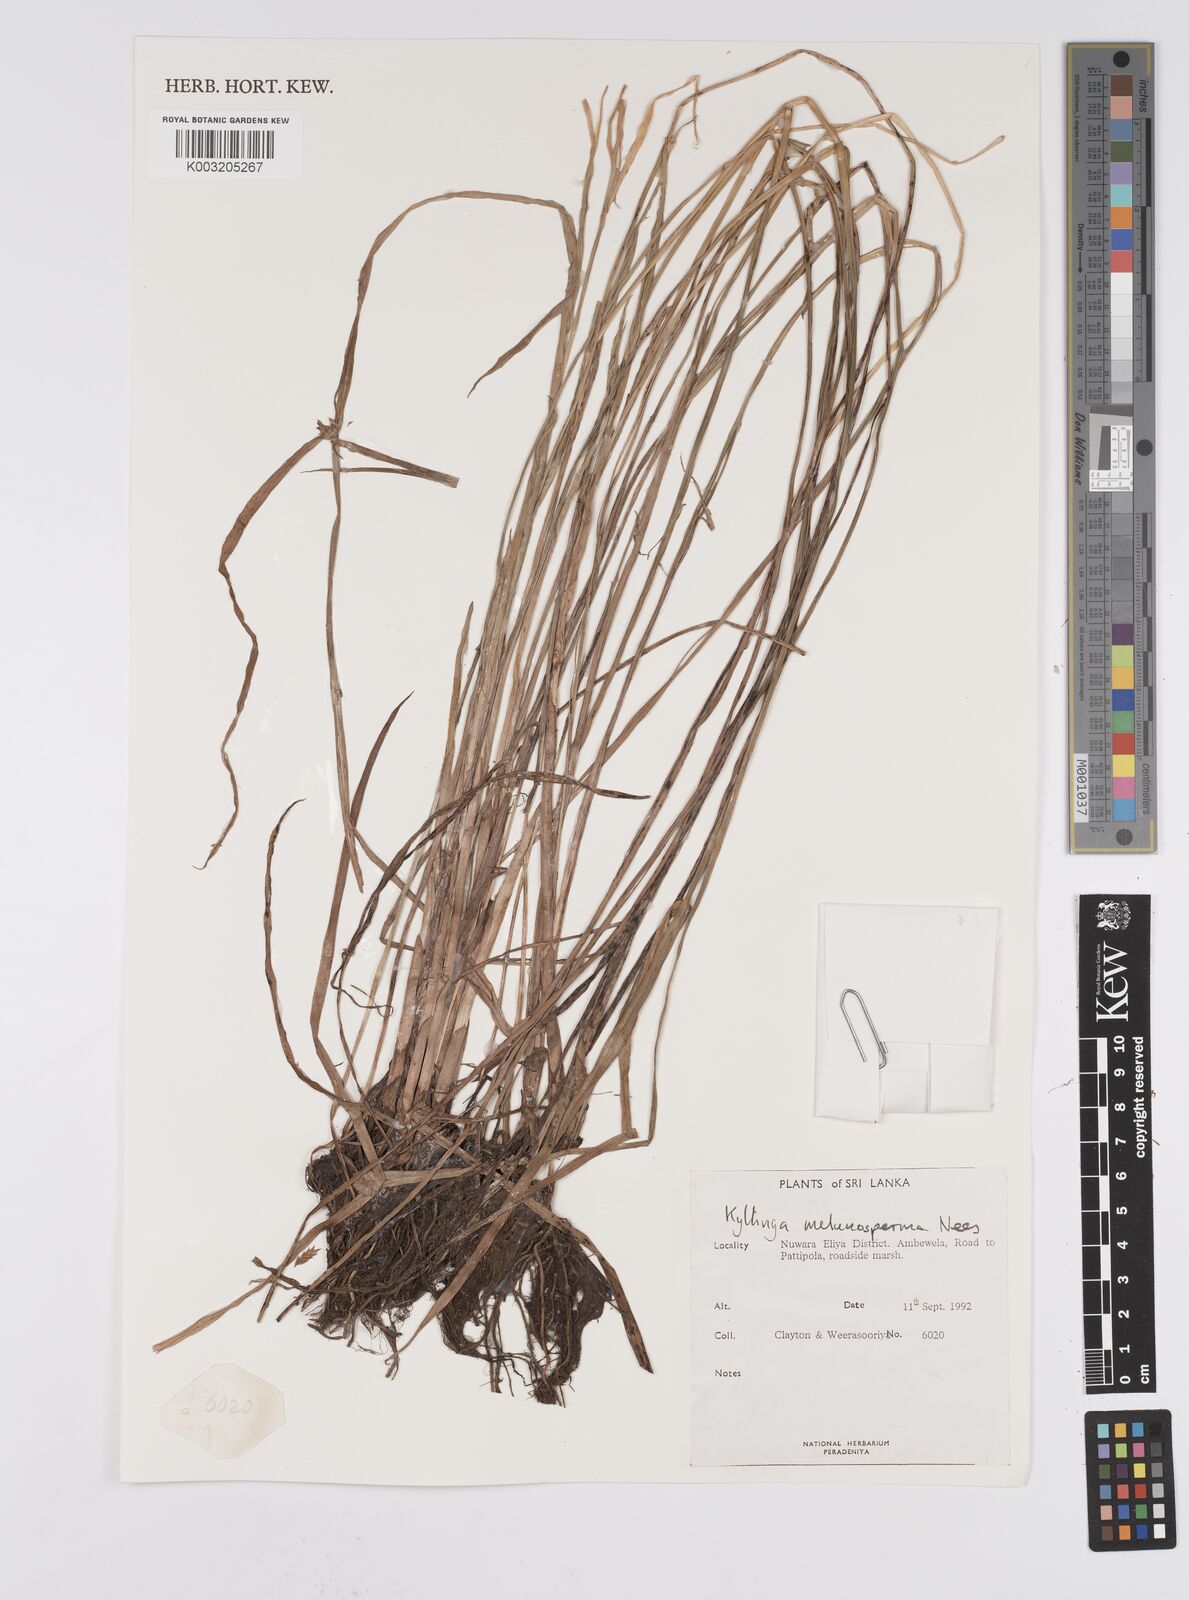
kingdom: Plantae
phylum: Tracheophyta
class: Liliopsida
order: Poales
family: Cyperaceae
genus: Cyperus
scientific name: Cyperus melanospermus
